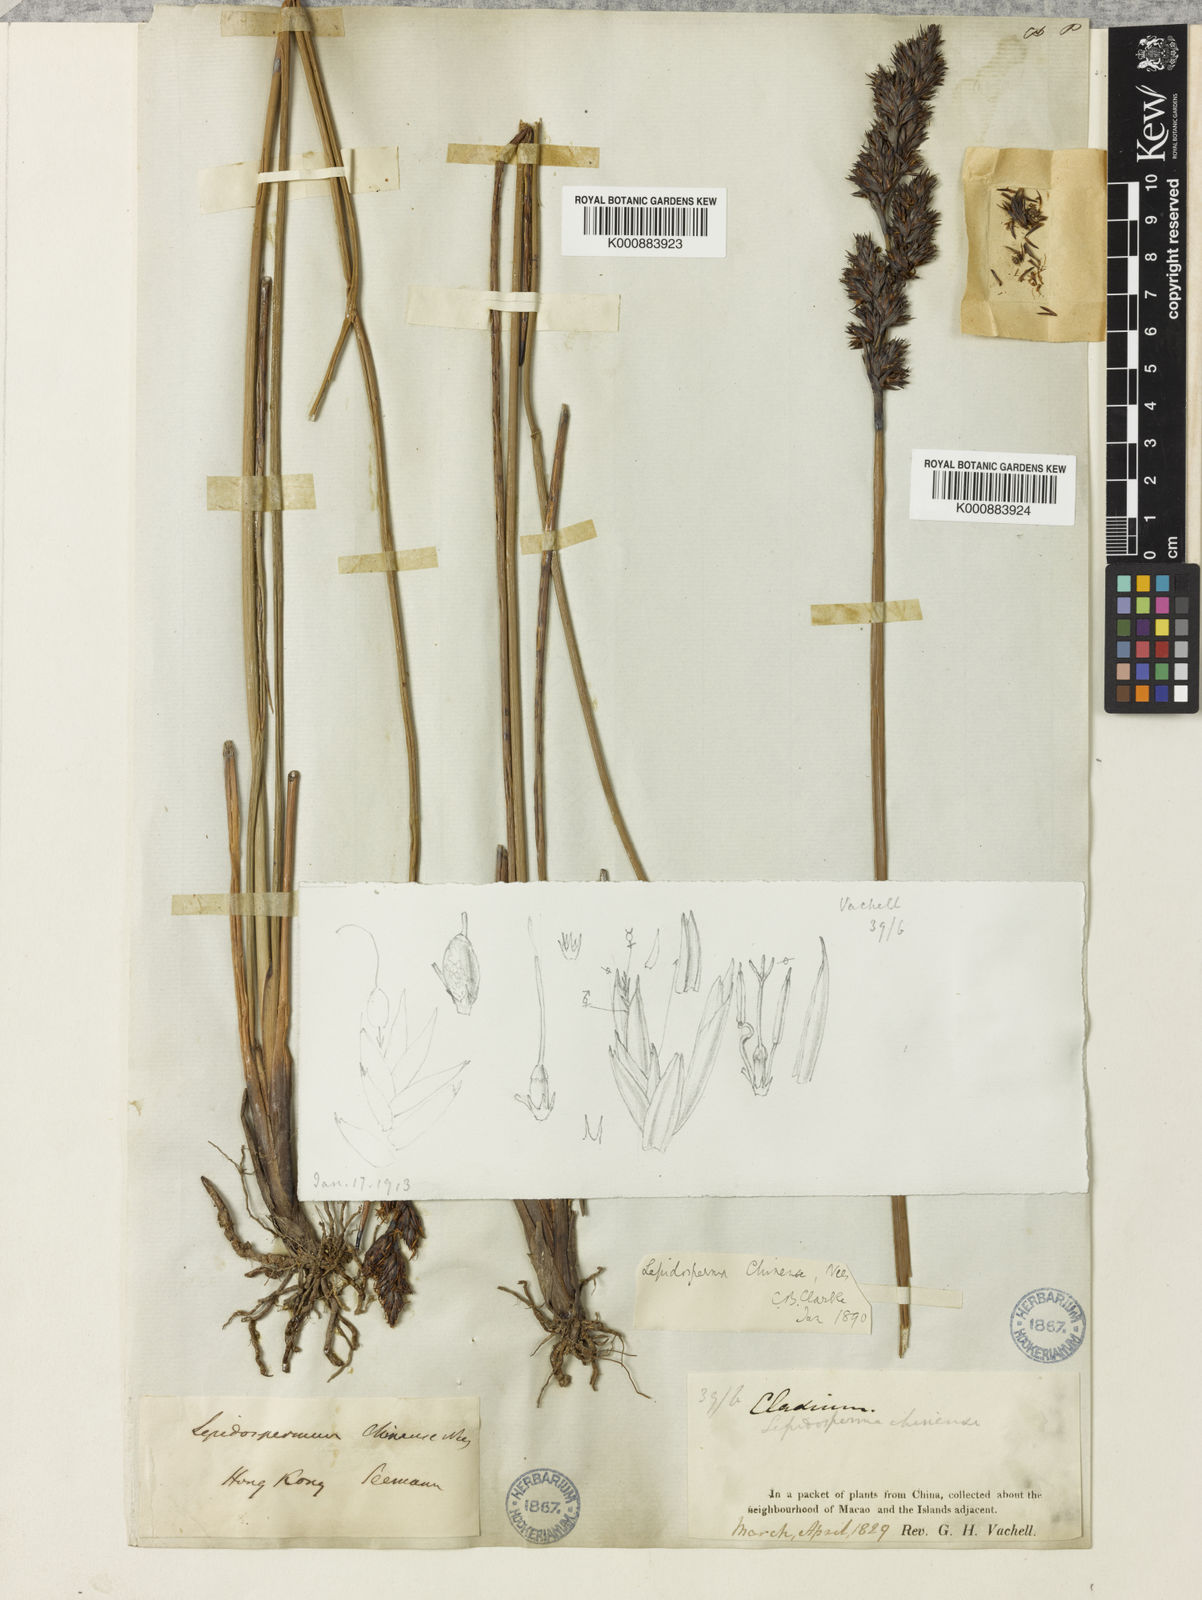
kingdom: Plantae
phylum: Tracheophyta
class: Liliopsida
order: Poales
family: Cyperaceae
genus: Lepidosperma
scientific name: Lepidosperma
